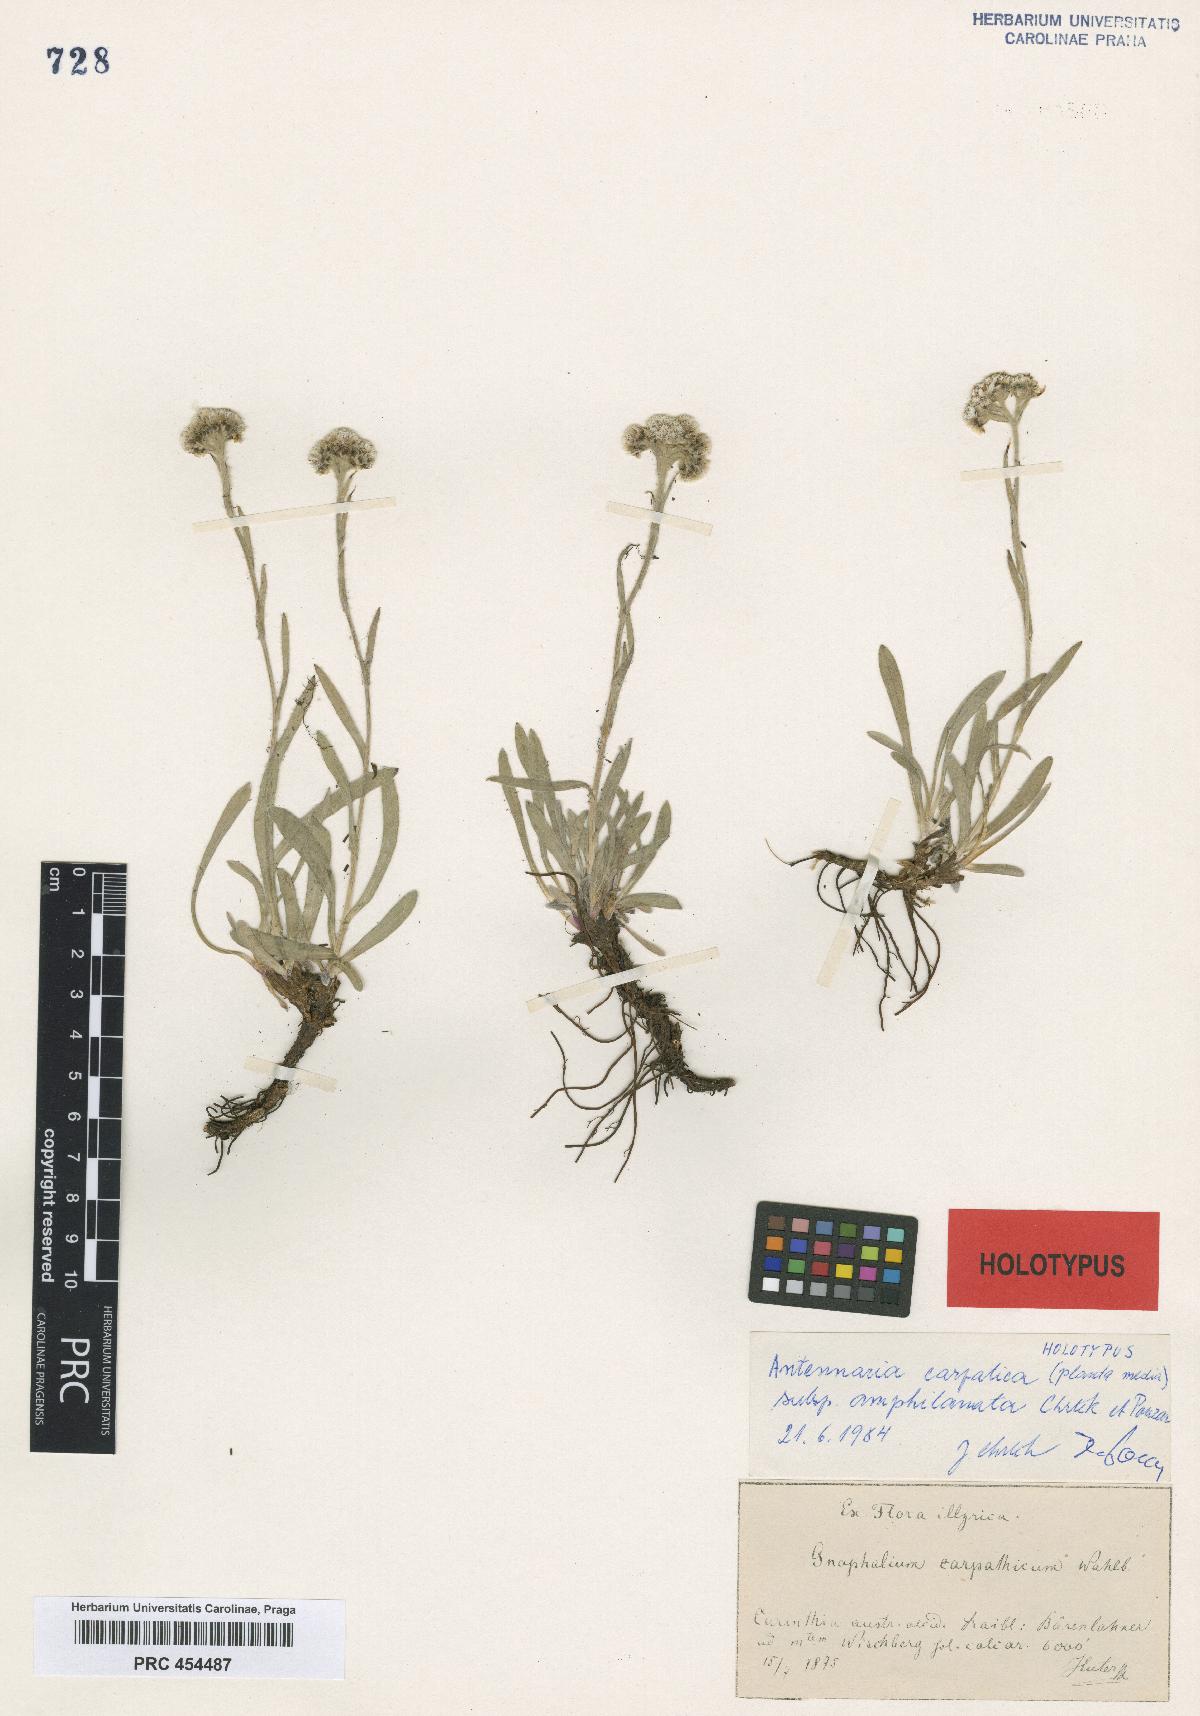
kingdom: Plantae
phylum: Tracheophyta
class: Magnoliopsida
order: Asterales
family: Asteraceae
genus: Antennaria
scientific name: Antennaria carpatica
